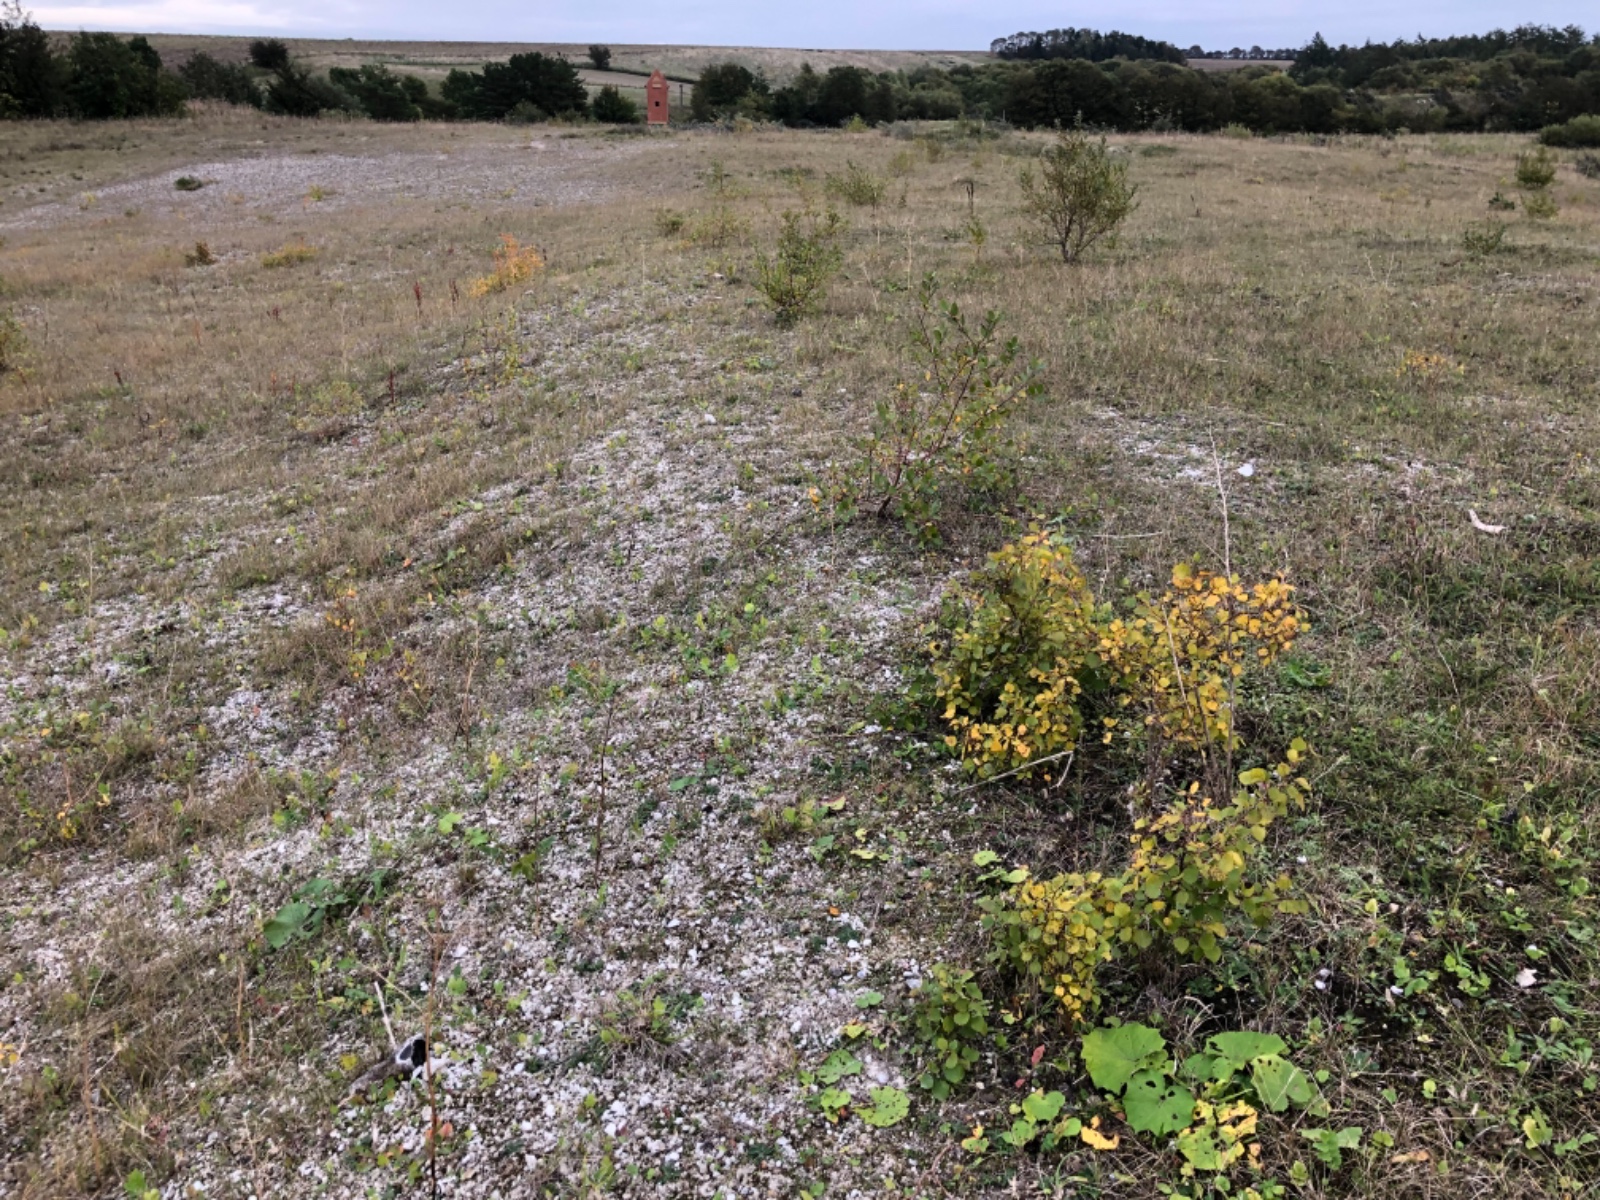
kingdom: Fungi
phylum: Basidiomycota
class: Agaricomycetes
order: Agaricales
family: Inocybaceae
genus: Inocybe
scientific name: Inocybe tjallingiorum
